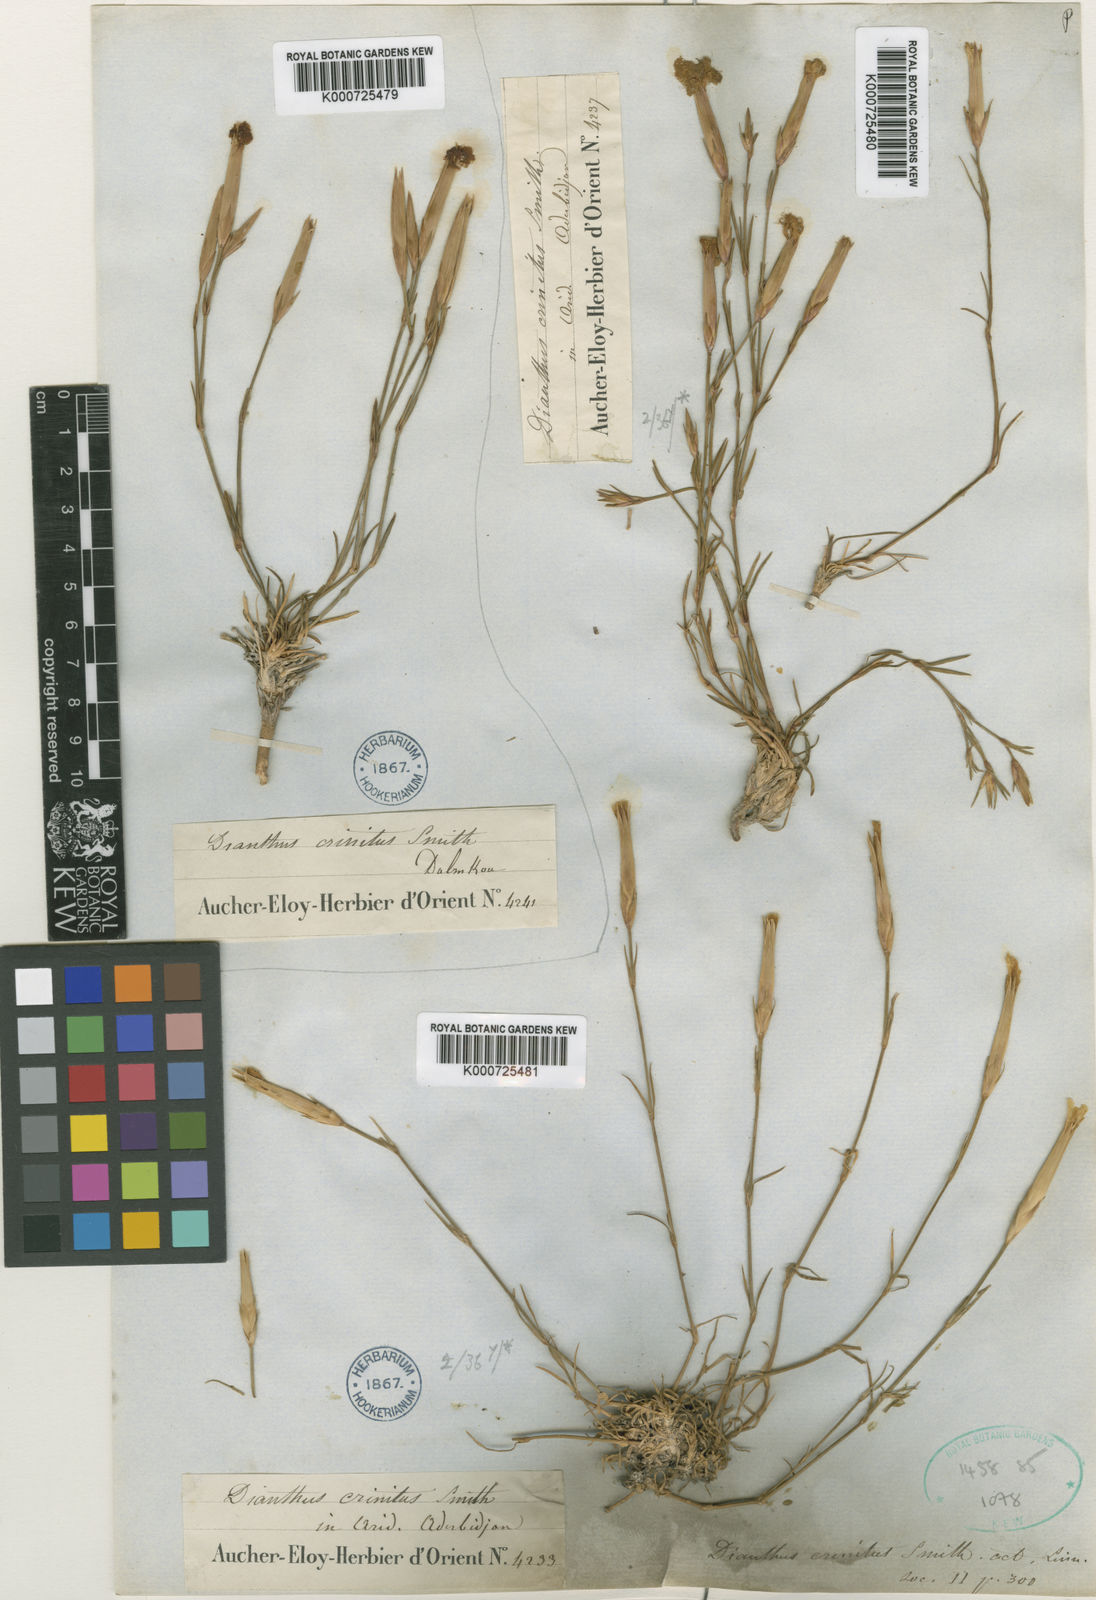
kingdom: Plantae
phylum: Tracheophyta
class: Magnoliopsida
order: Caryophyllales
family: Caryophyllaceae
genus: Dianthus
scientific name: Dianthus
